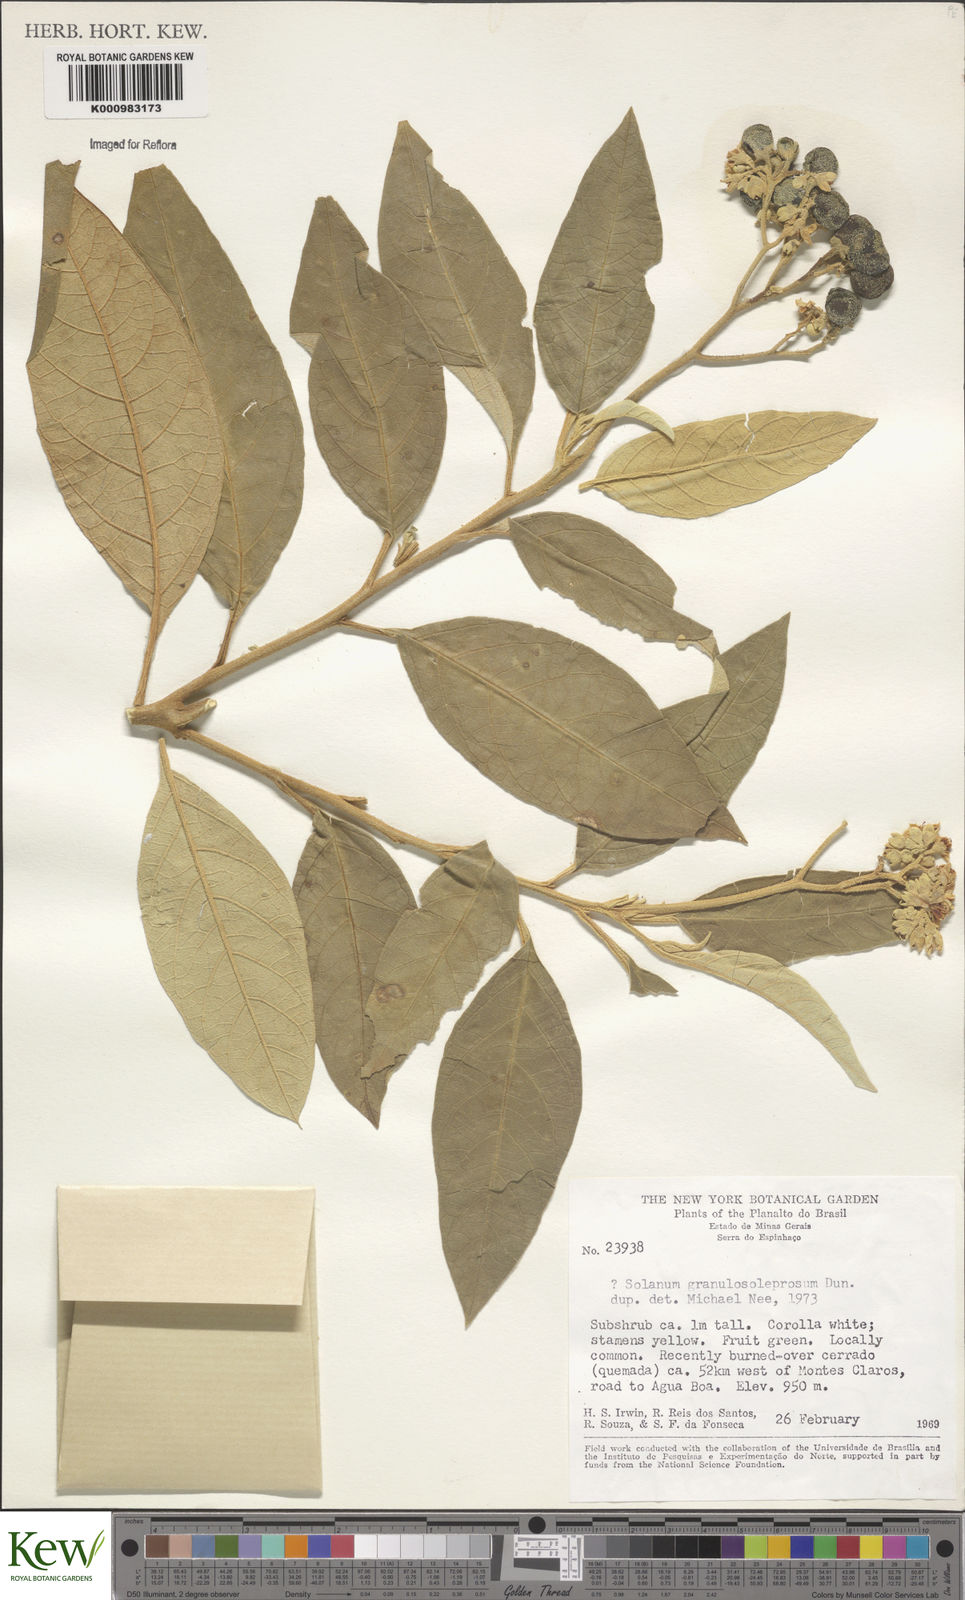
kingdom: Plantae
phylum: Tracheophyta
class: Magnoliopsida
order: Solanales
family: Solanaceae
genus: Solanum
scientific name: Solanum granulosoleprosum
